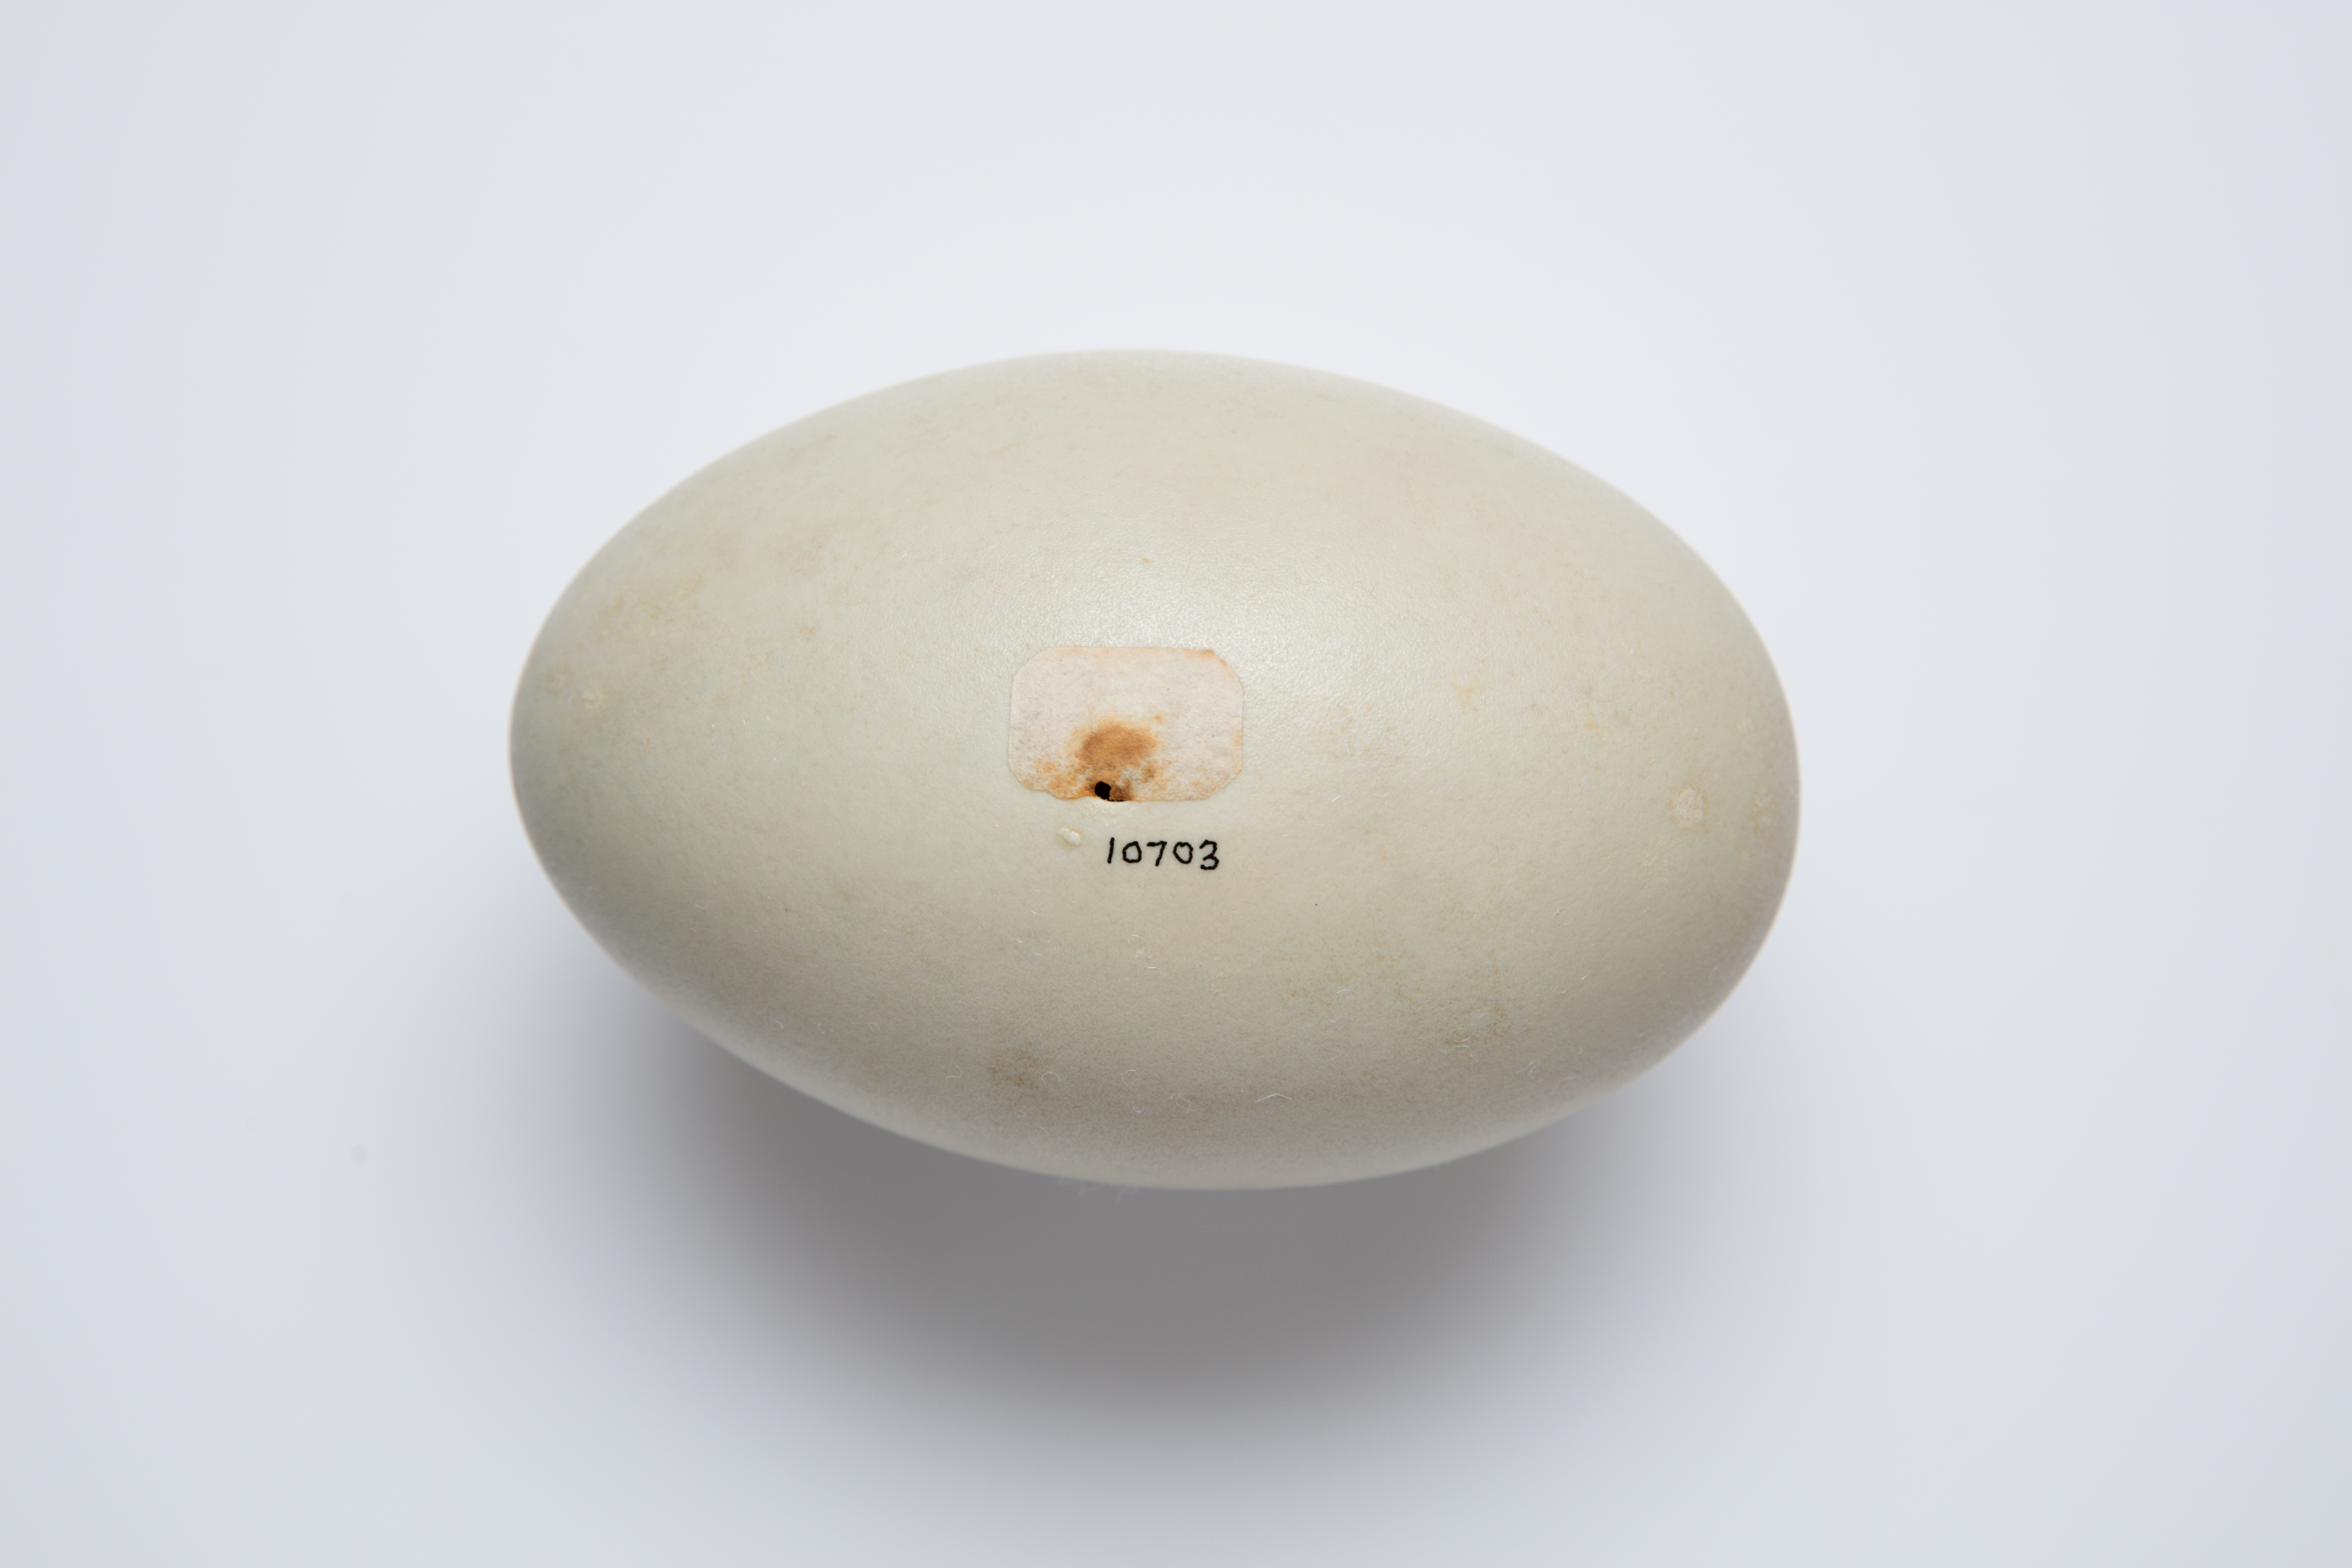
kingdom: Animalia
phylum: Chordata
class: Aves
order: Anseriformes
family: Anatidae
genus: Cygnus
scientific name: Cygnus olor
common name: Mute swan
